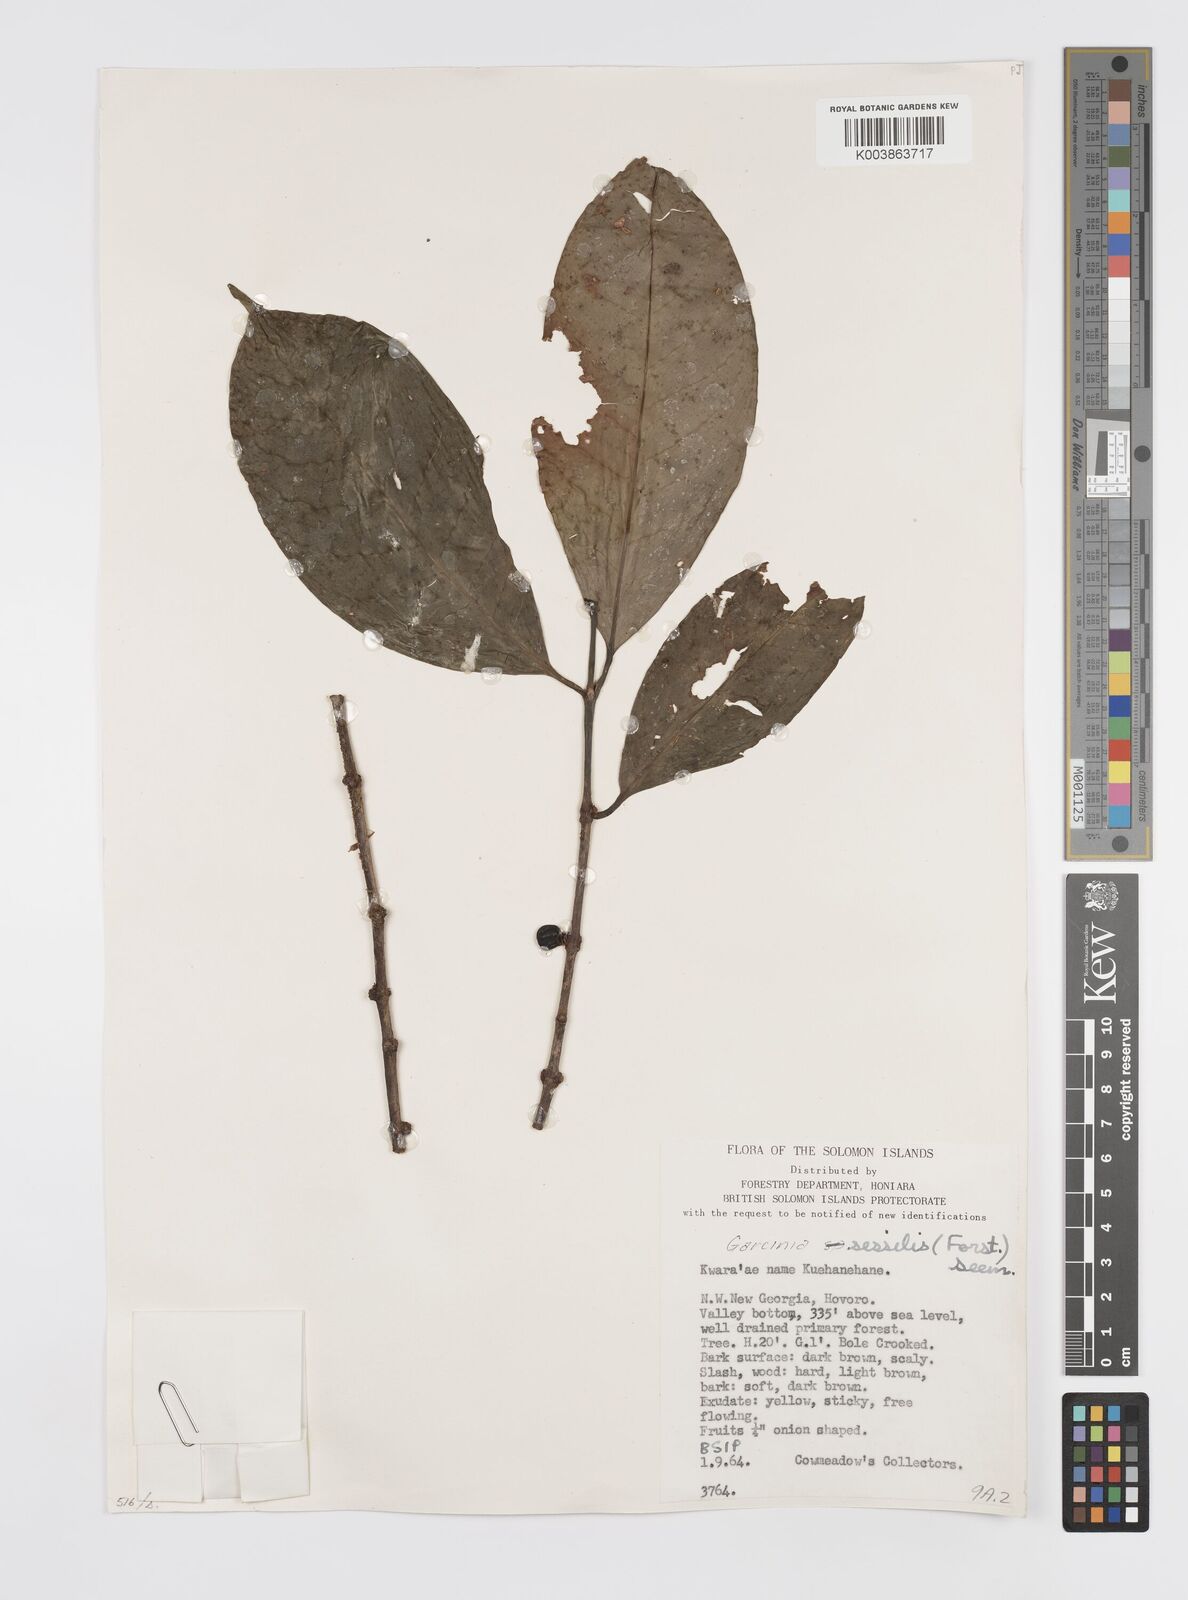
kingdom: Plantae
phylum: Tracheophyta
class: Magnoliopsida
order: Malpighiales
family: Clusiaceae
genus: Garcinia
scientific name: Garcinia sessilis
